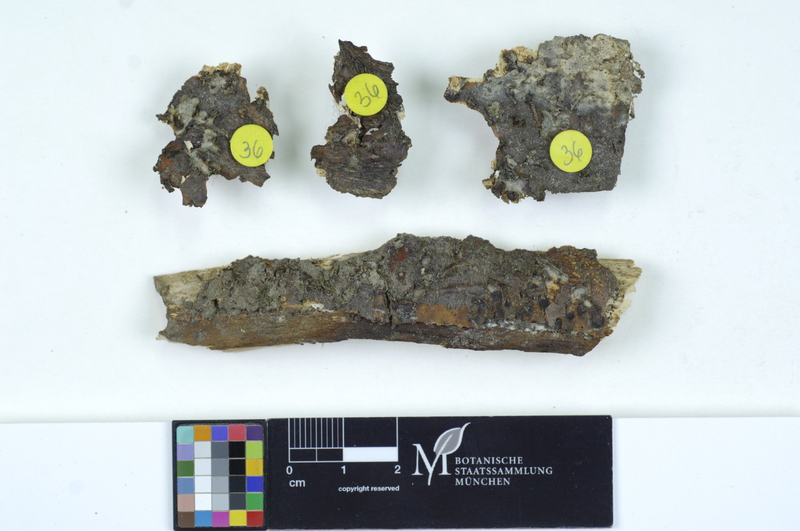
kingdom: Fungi
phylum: Basidiomycota
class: Agaricomycetes
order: Auriculariales
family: Auriculariaceae
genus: Exidia
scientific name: Exidia thuretiana
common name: White brain
